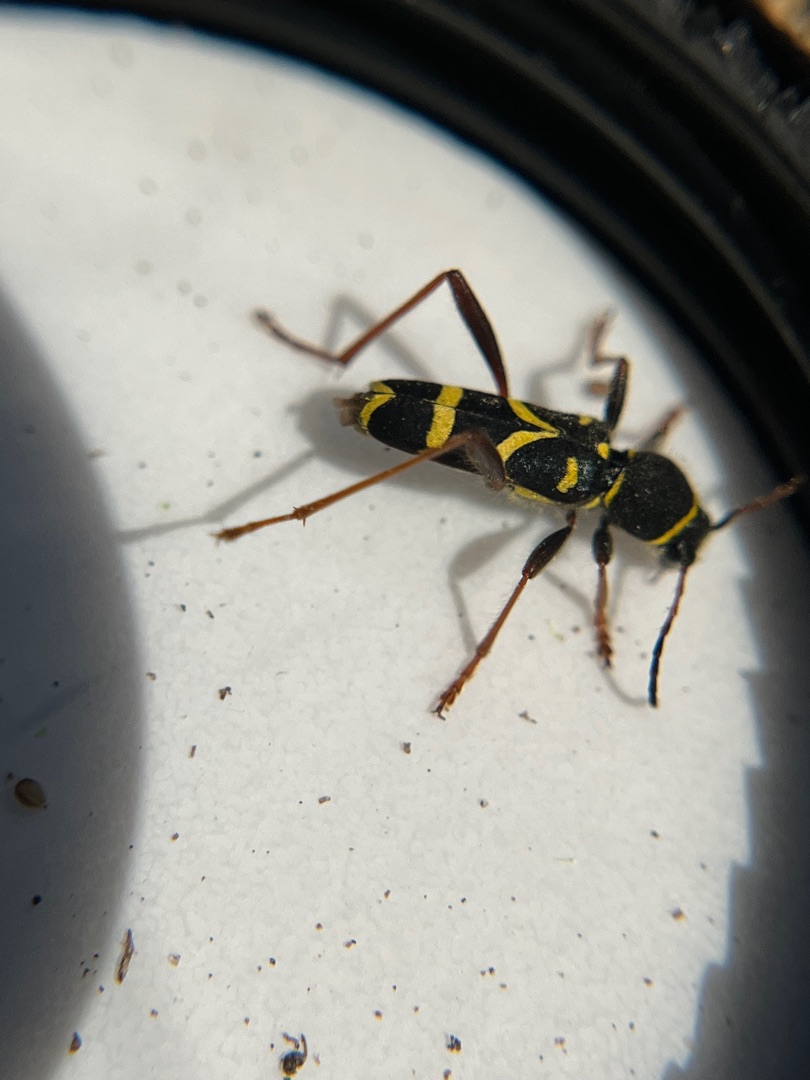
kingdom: Animalia
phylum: Arthropoda
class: Insecta
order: Coleoptera
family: Cerambycidae
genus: Clytus
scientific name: Clytus arietis
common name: Lille hvepsebuk
